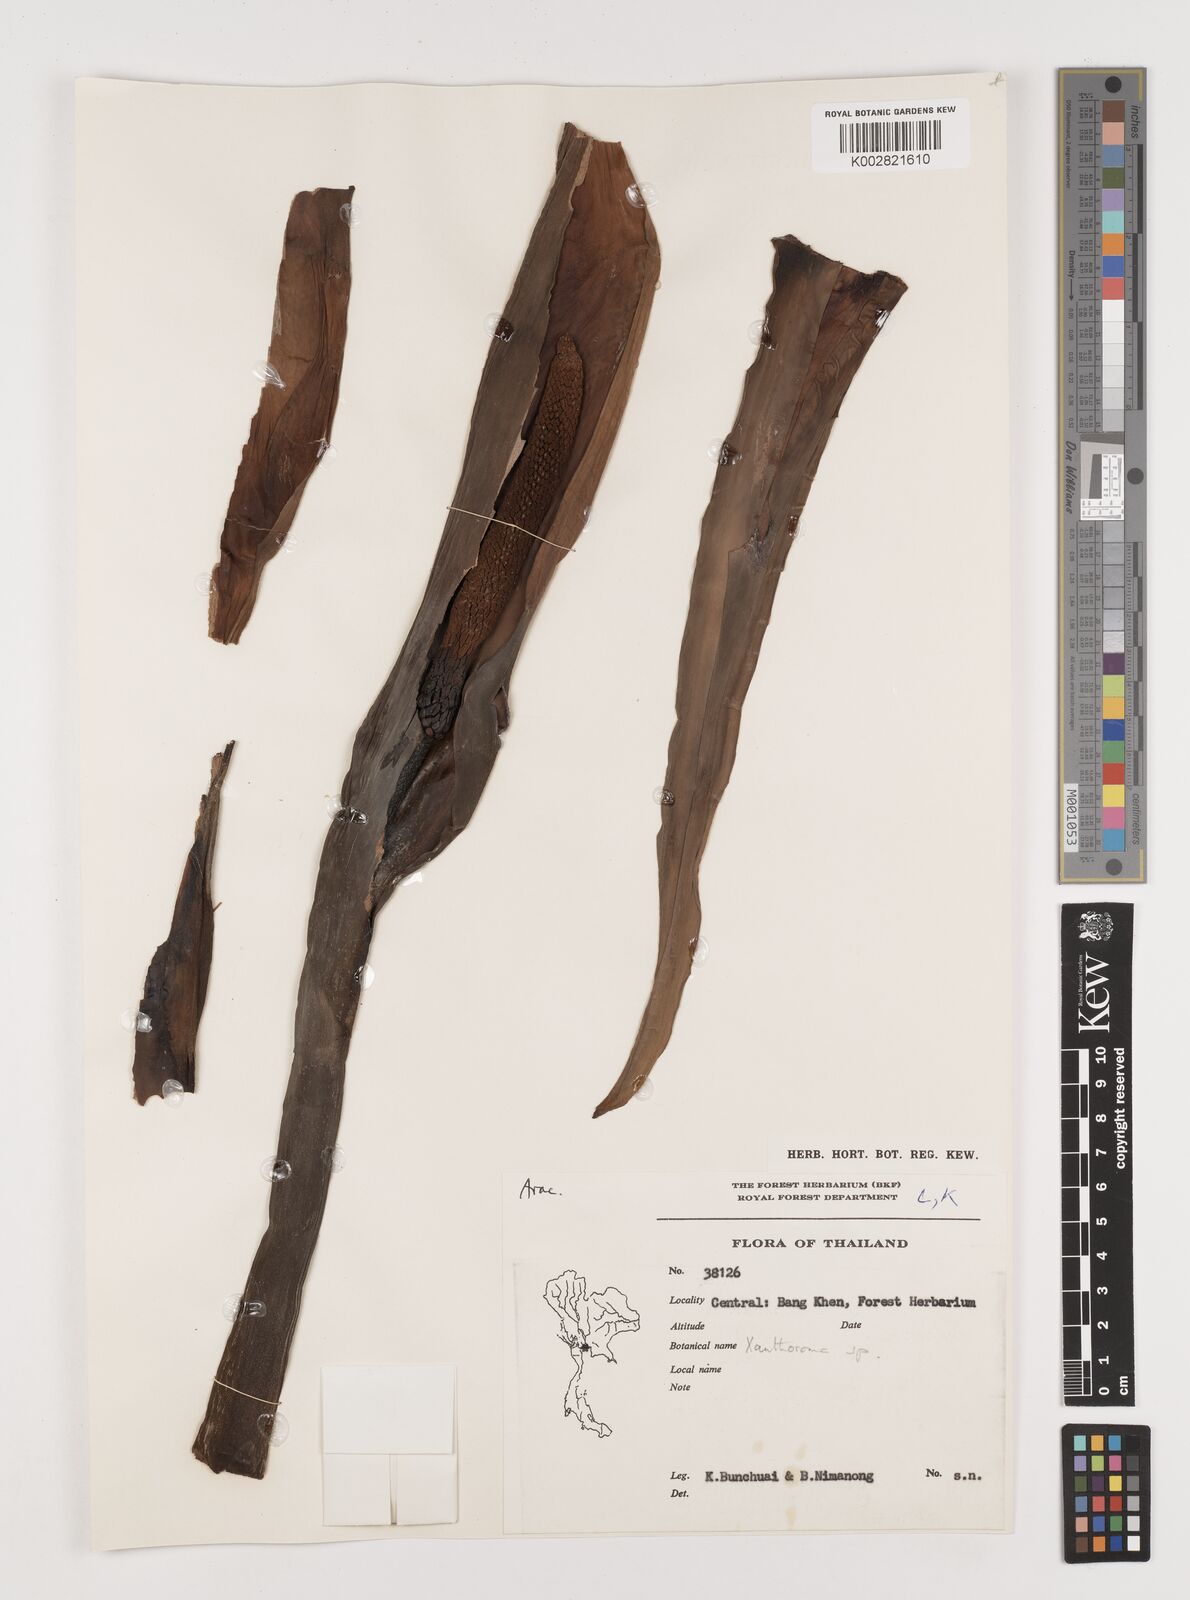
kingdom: Plantae
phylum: Tracheophyta
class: Liliopsida
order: Alismatales
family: Araceae
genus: Xanthosoma
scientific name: Xanthosoma sagittifolium
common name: Arrowleaf elephant's ear
